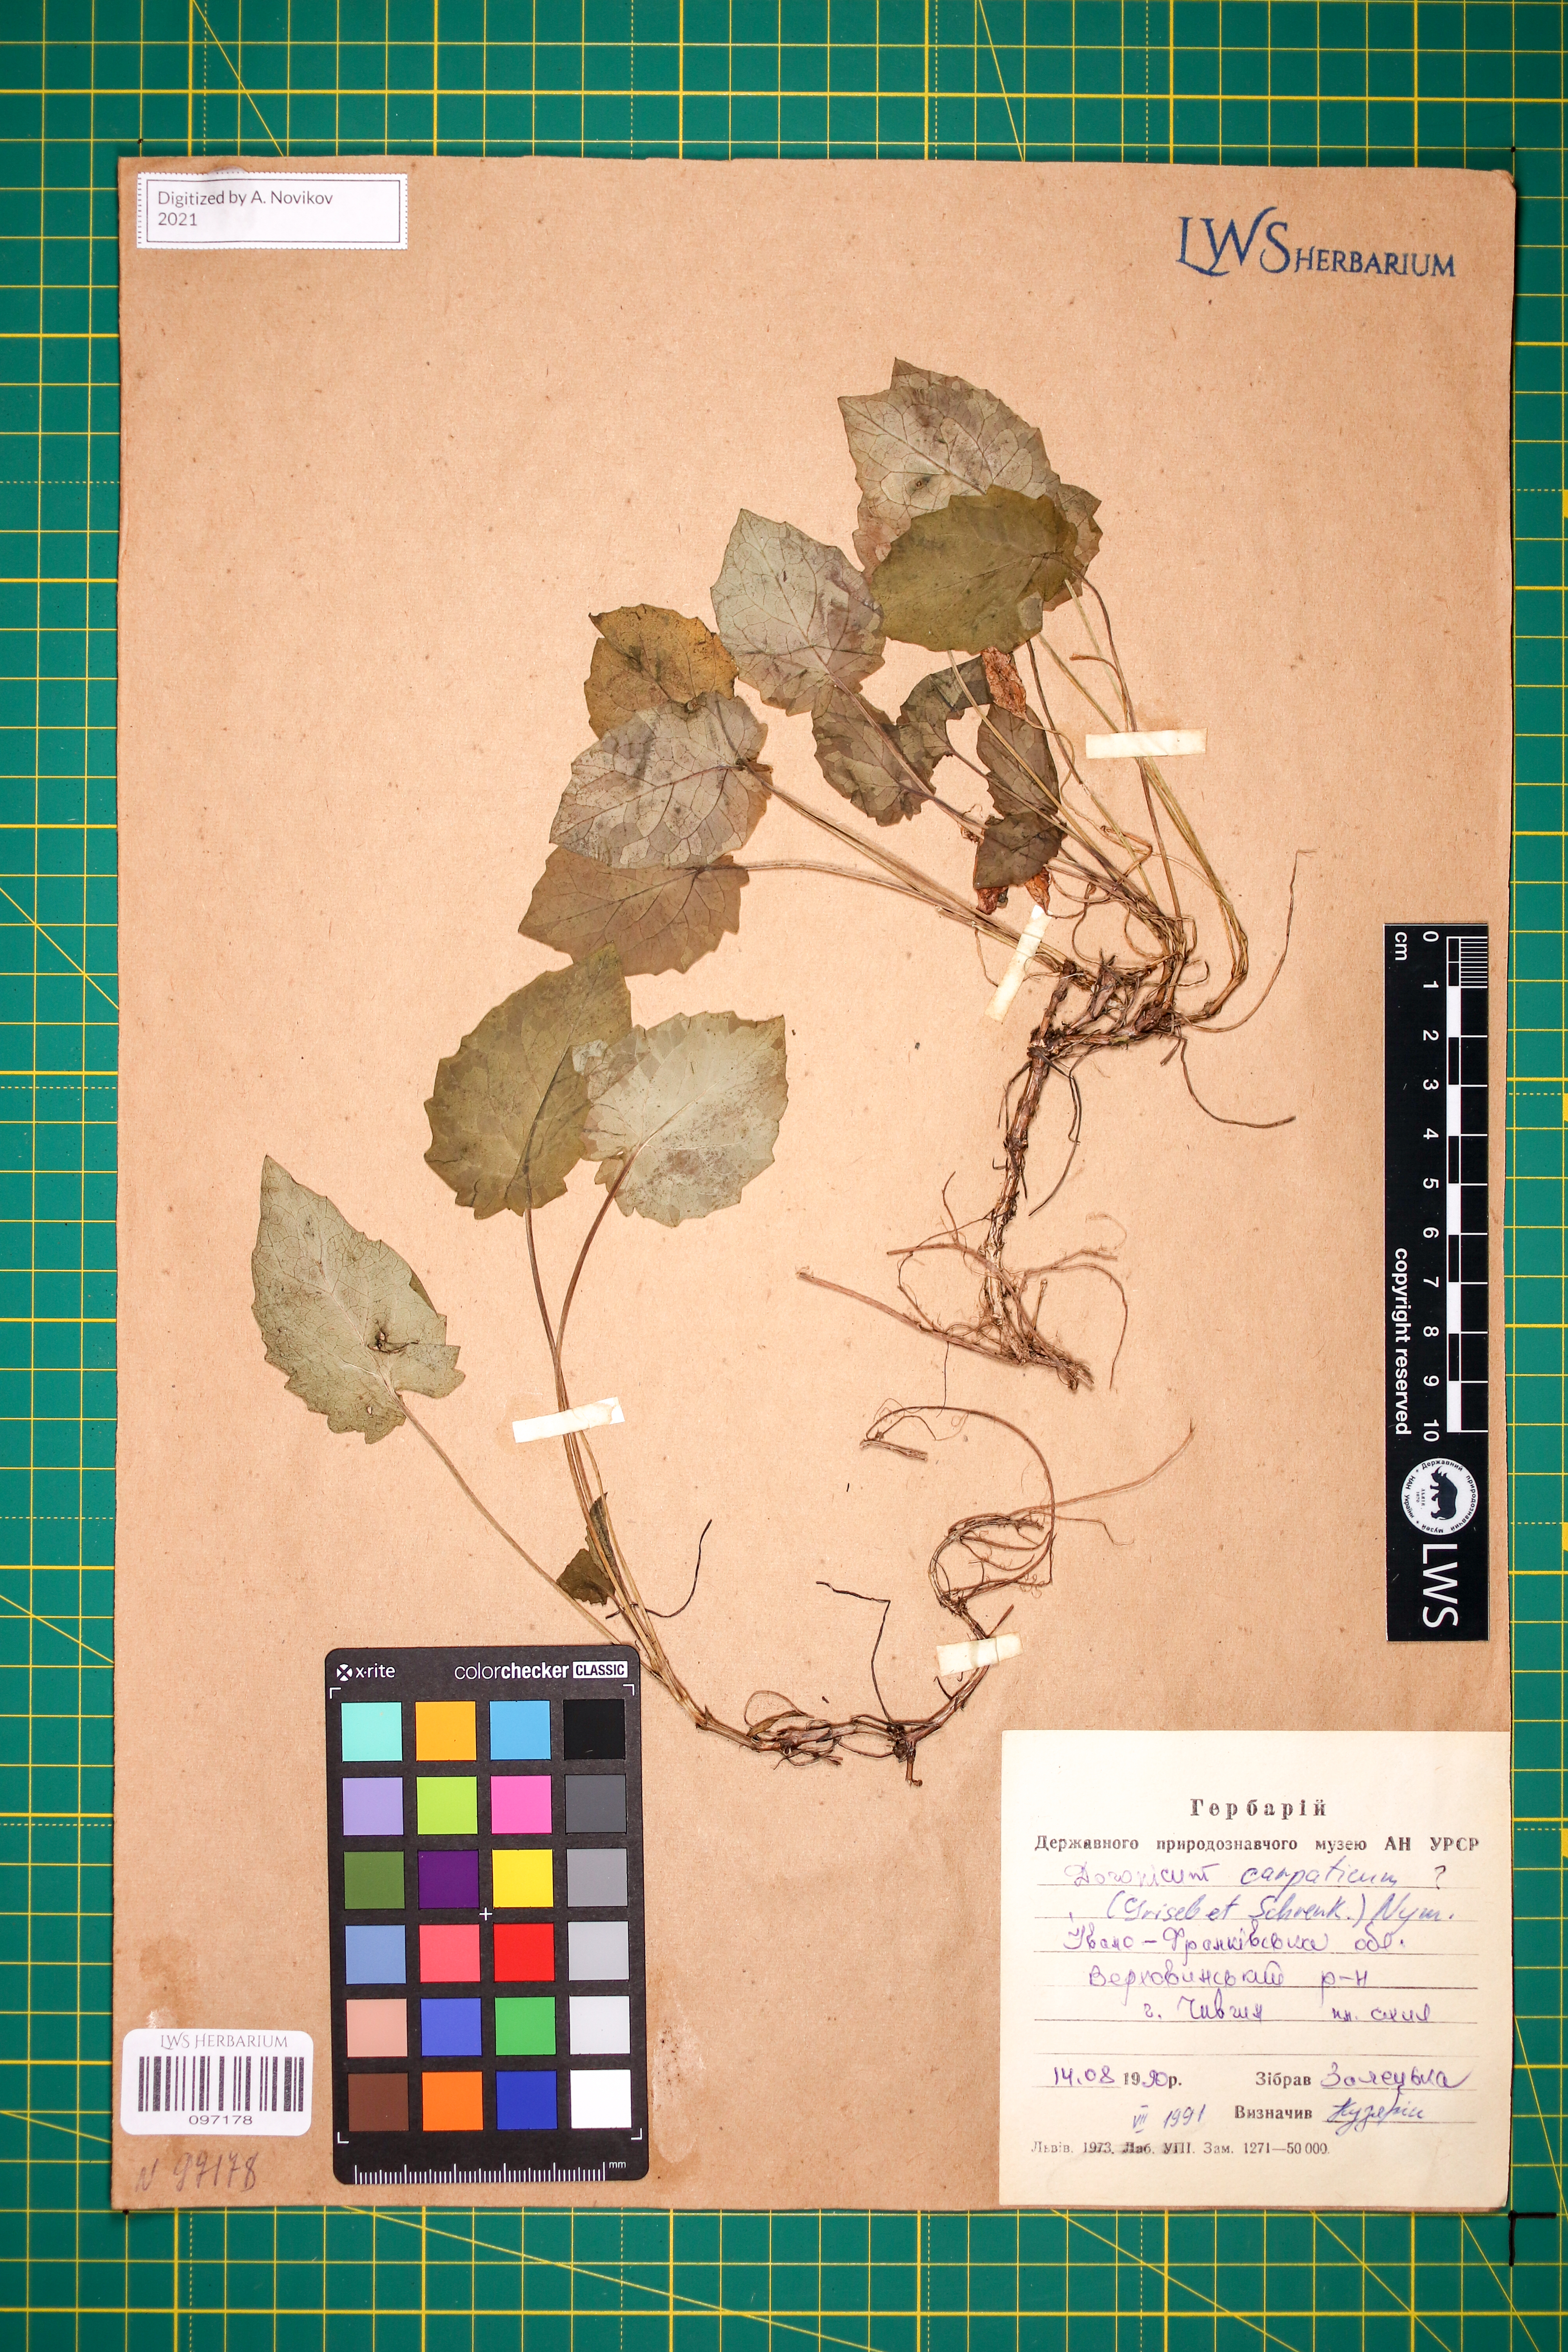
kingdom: Plantae
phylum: Tracheophyta
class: Magnoliopsida
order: Asterales
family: Asteraceae
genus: Doronicum
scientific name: Doronicum carpaticum
